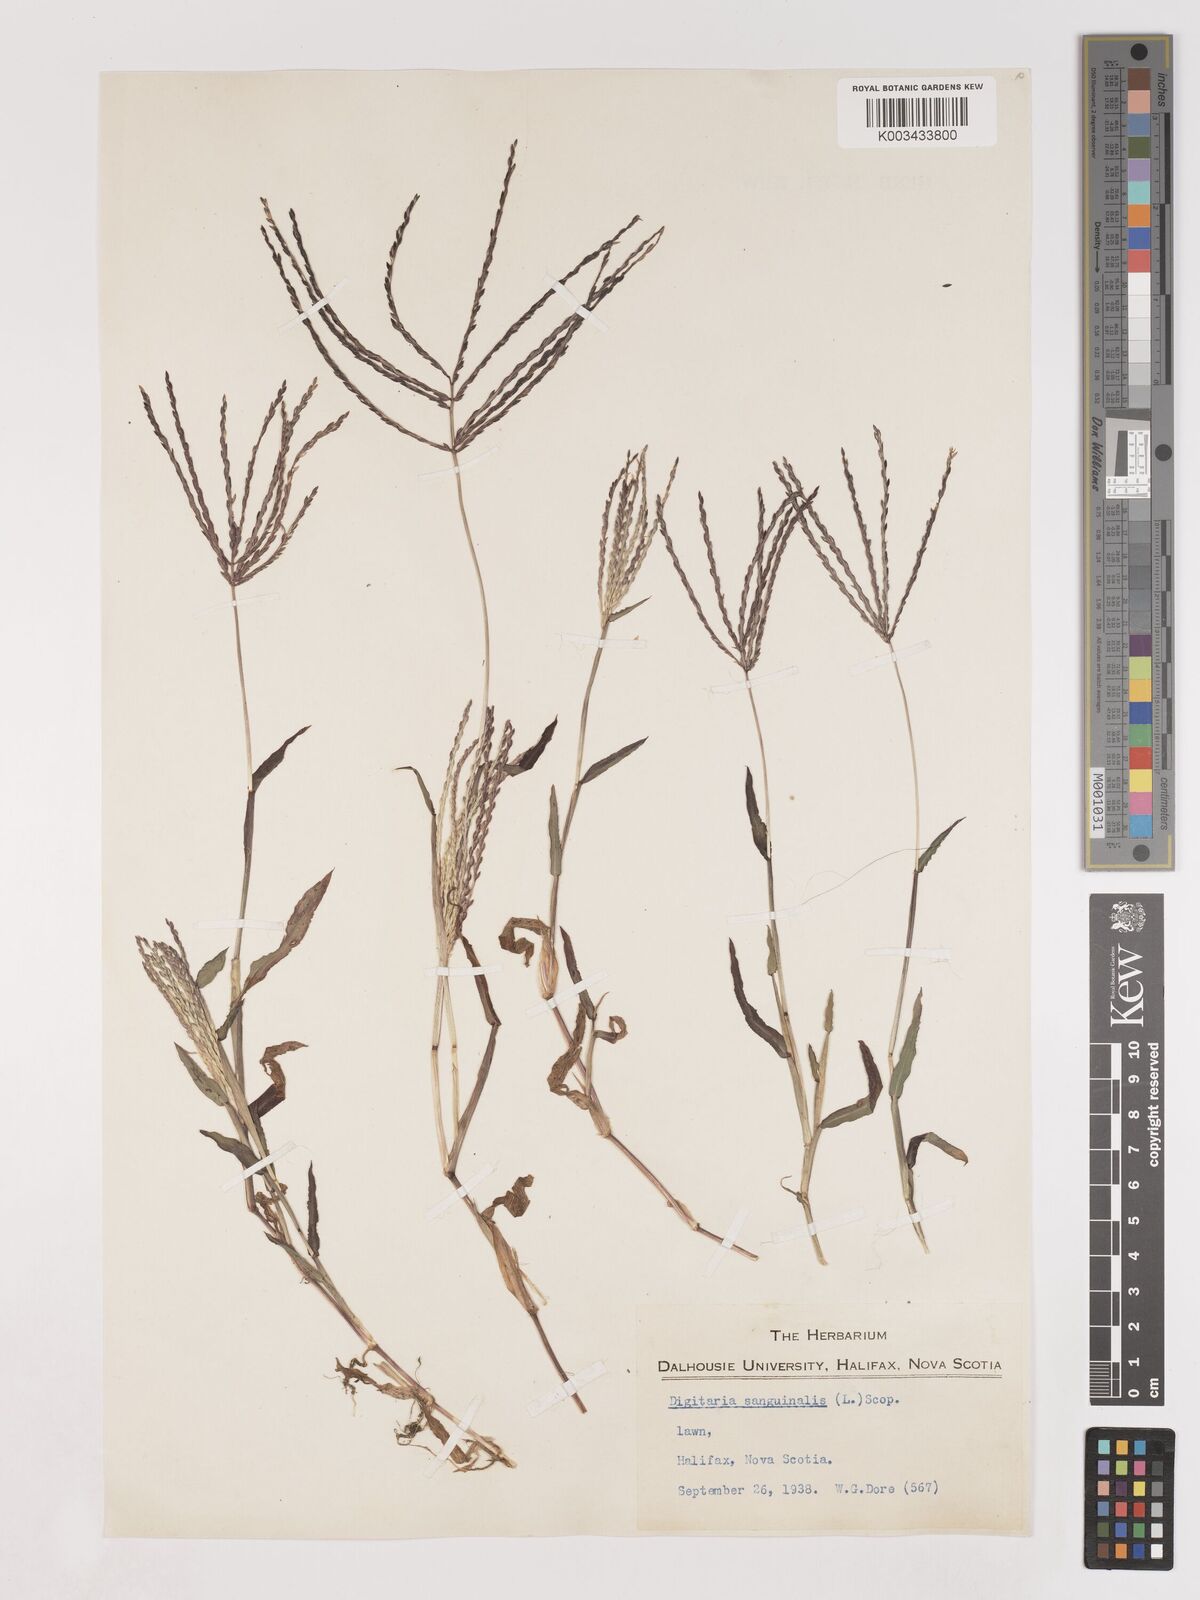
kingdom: Plantae
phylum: Tracheophyta
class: Liliopsida
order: Poales
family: Poaceae
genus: Digitaria
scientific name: Digitaria sanguinalis
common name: Hairy crabgrass
